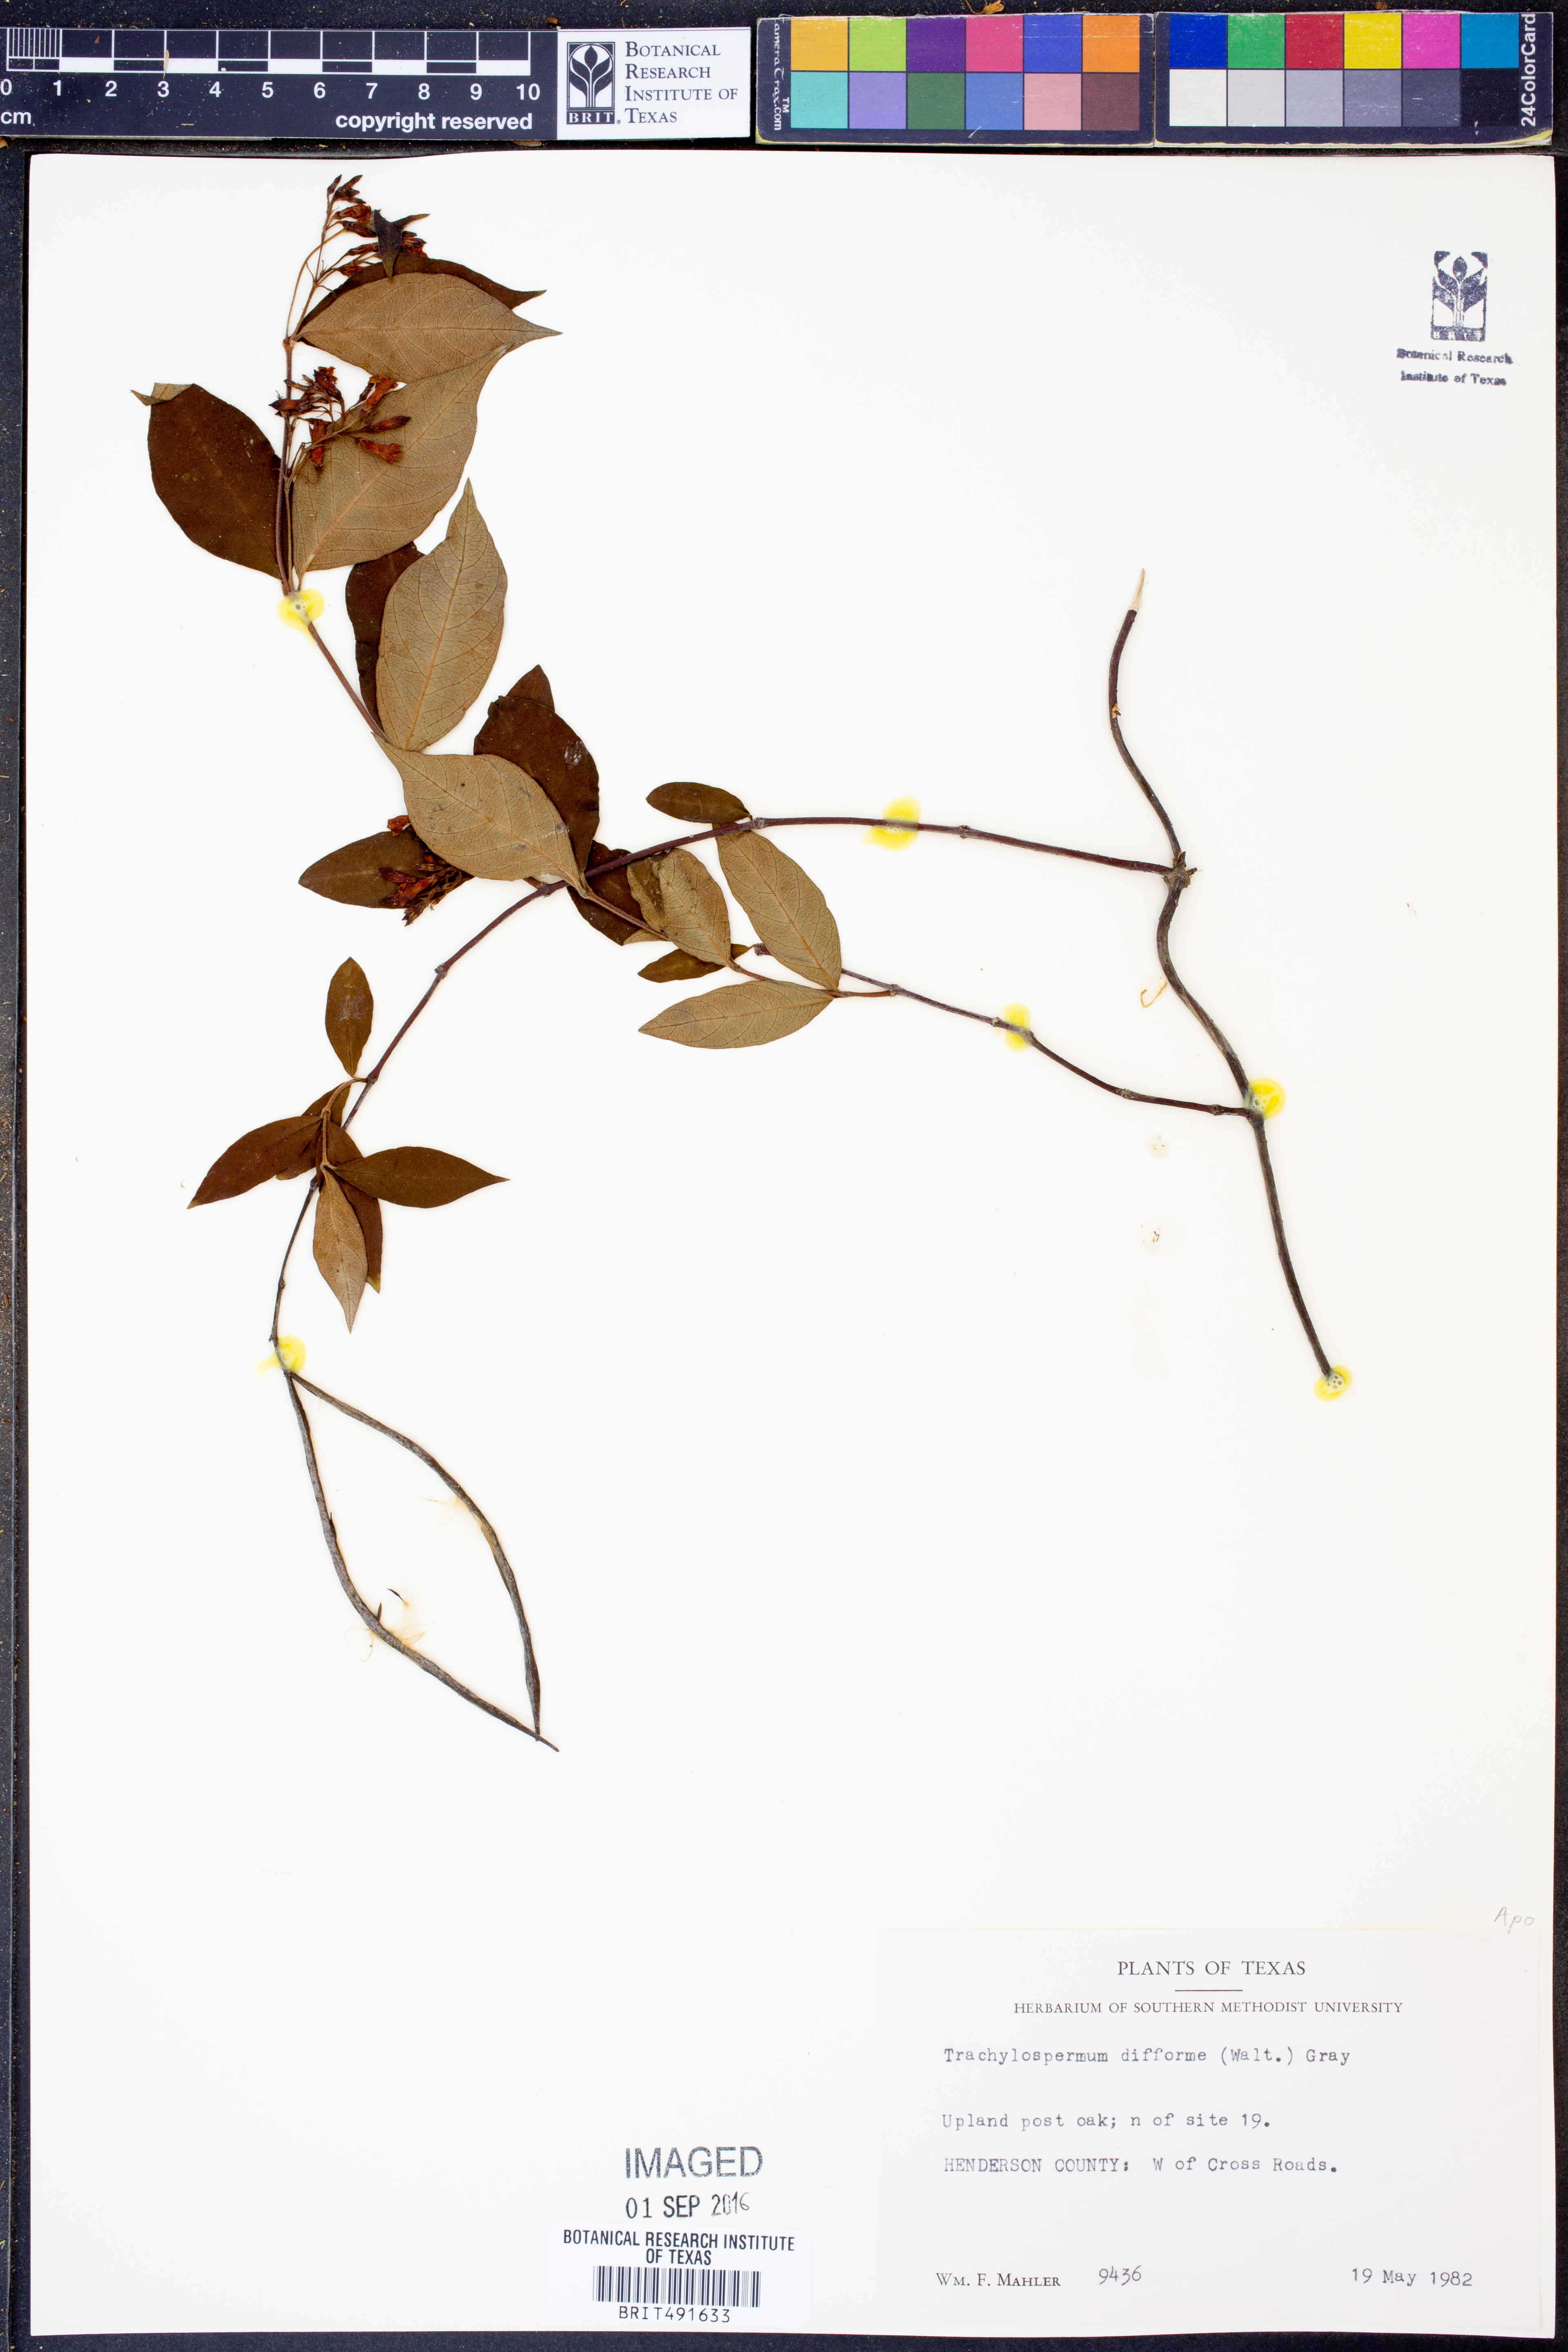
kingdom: Plantae
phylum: Tracheophyta
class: Magnoliopsida
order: Gentianales
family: Apocynaceae
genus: Thyrsanthella
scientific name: Thyrsanthella difformis
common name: Climbing dogbane
